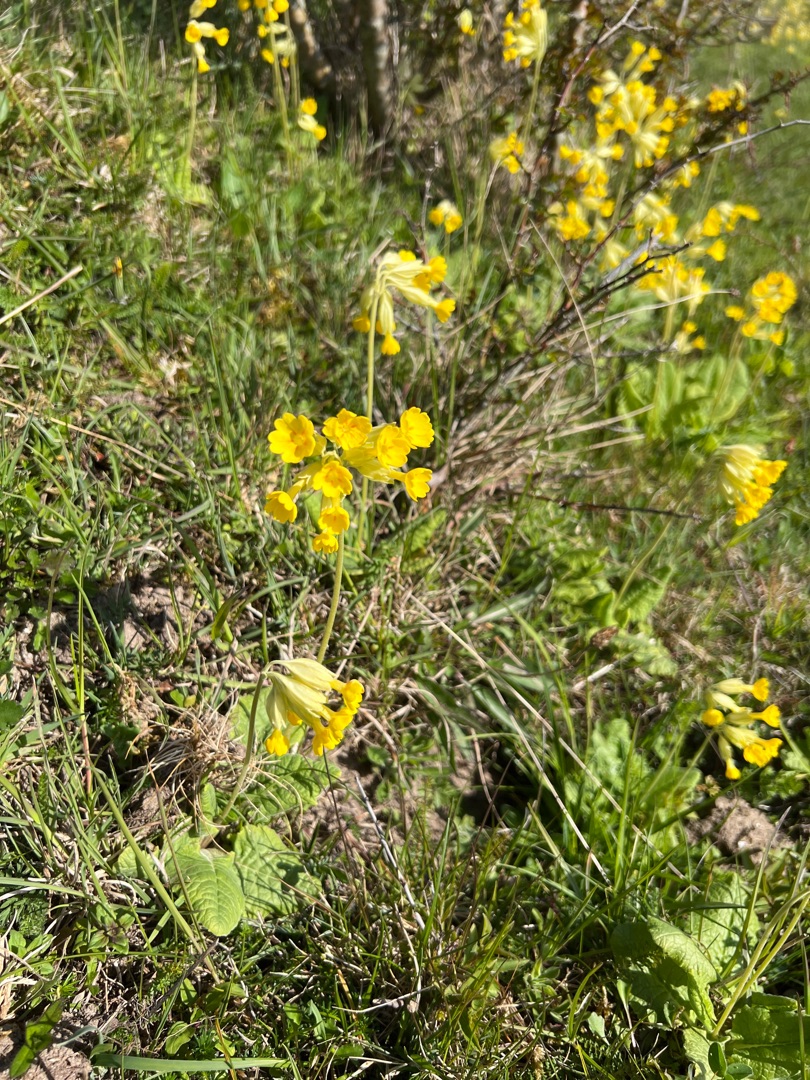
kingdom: Plantae
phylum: Tracheophyta
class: Magnoliopsida
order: Ericales
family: Primulaceae
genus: Primula
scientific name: Primula veris
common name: Hulkravet kodriver
